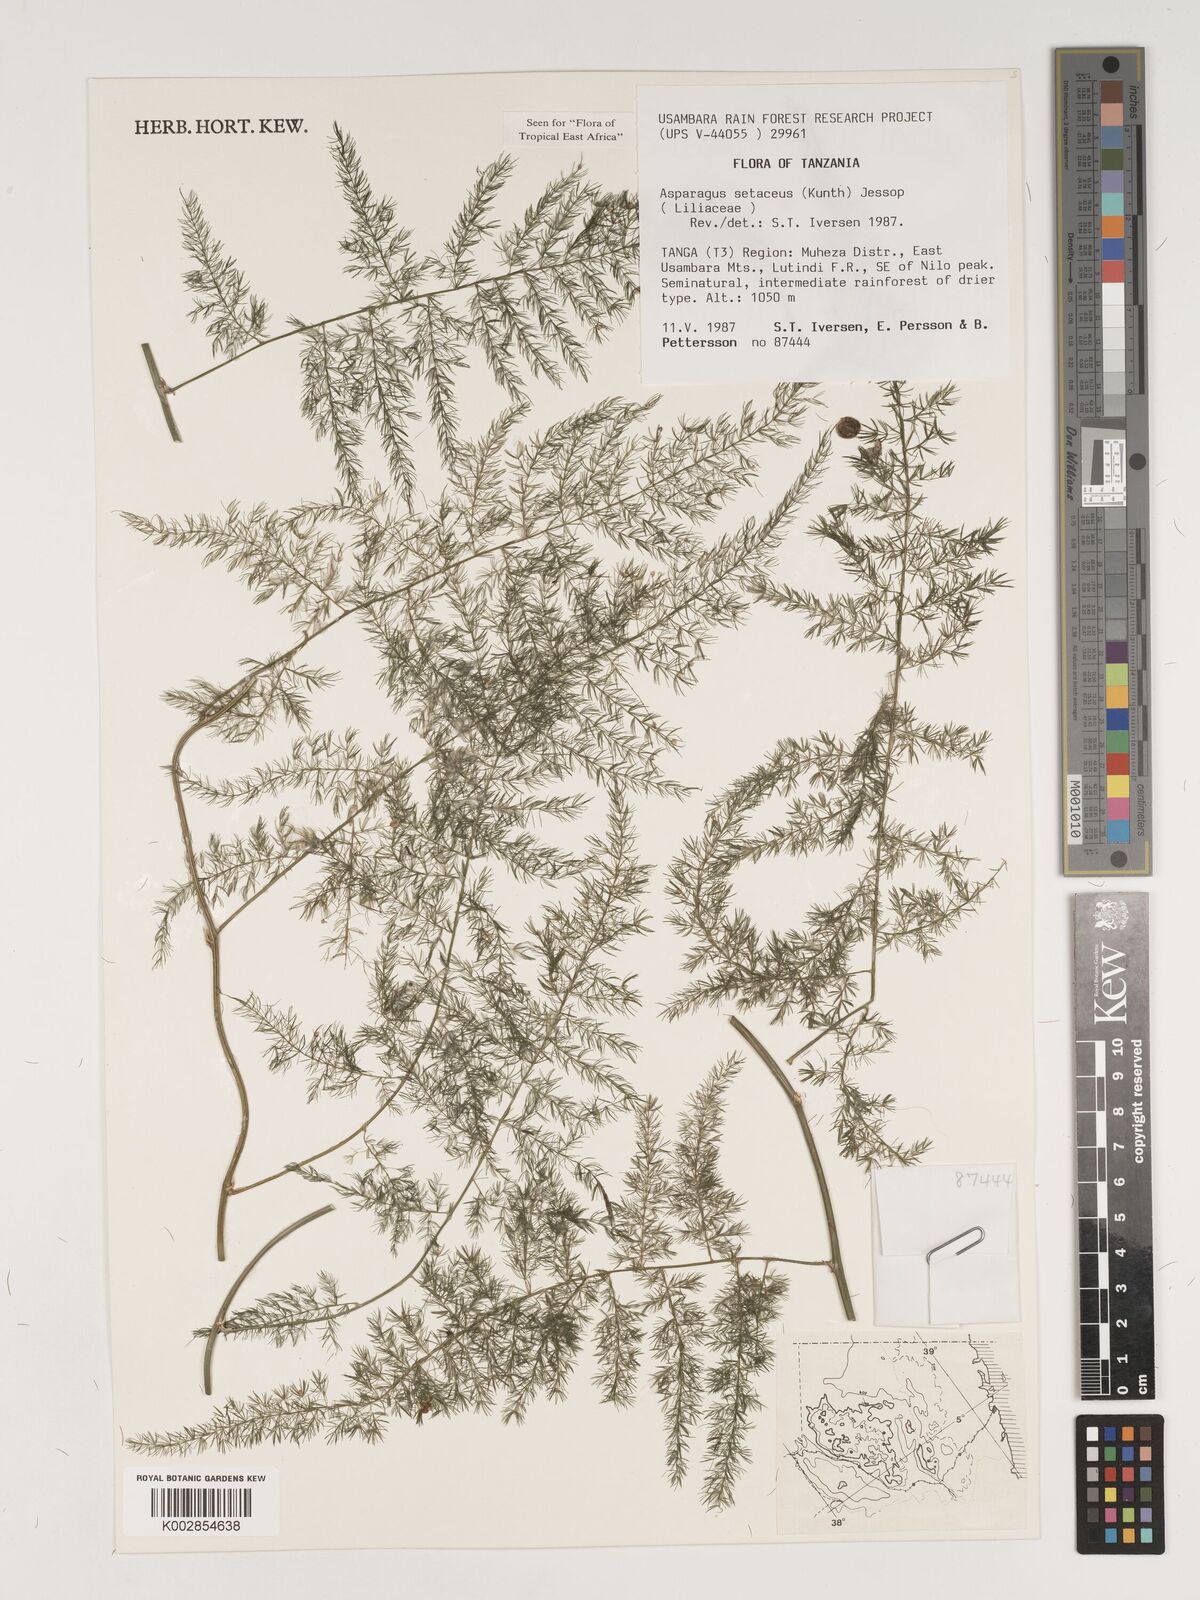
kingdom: Plantae
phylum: Tracheophyta
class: Liliopsida
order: Asparagales
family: Asparagaceae
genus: Asparagus
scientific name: Asparagus setaceus
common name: Common asparagus fern
